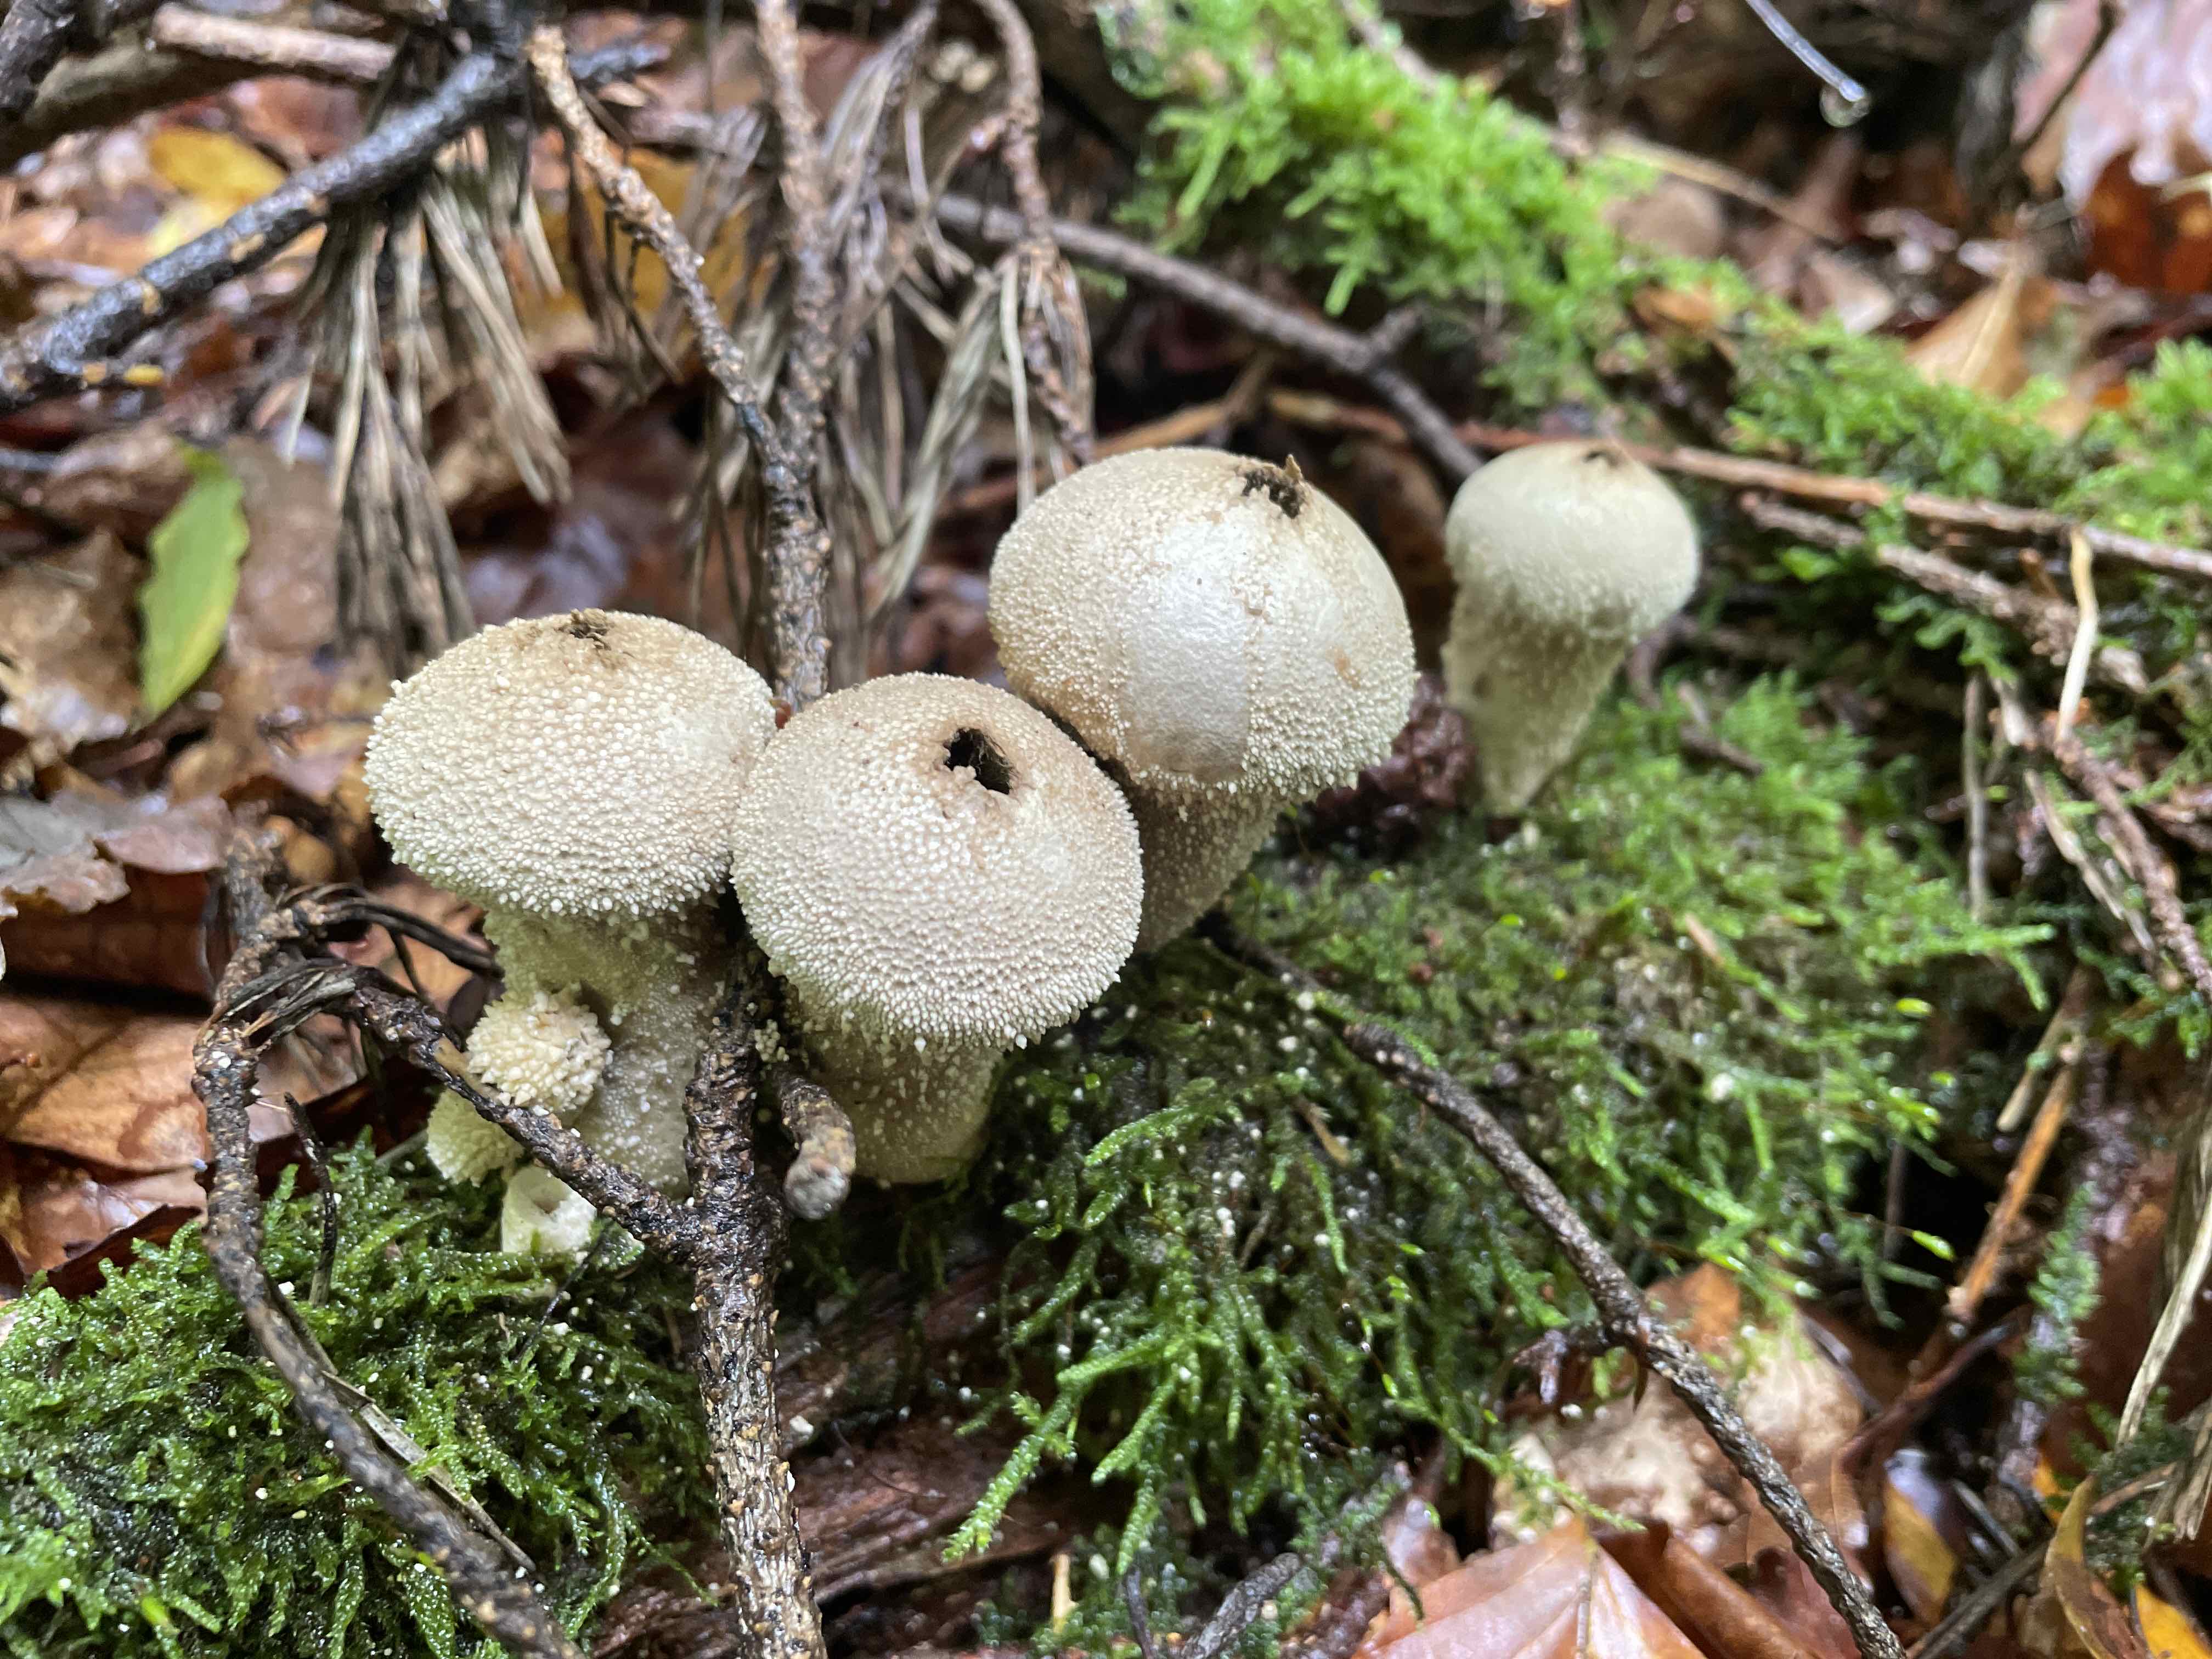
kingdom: Fungi
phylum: Basidiomycota
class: Agaricomycetes
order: Agaricales
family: Lycoperdaceae
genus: Lycoperdon
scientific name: Lycoperdon perlatum
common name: krystal-støvbold
